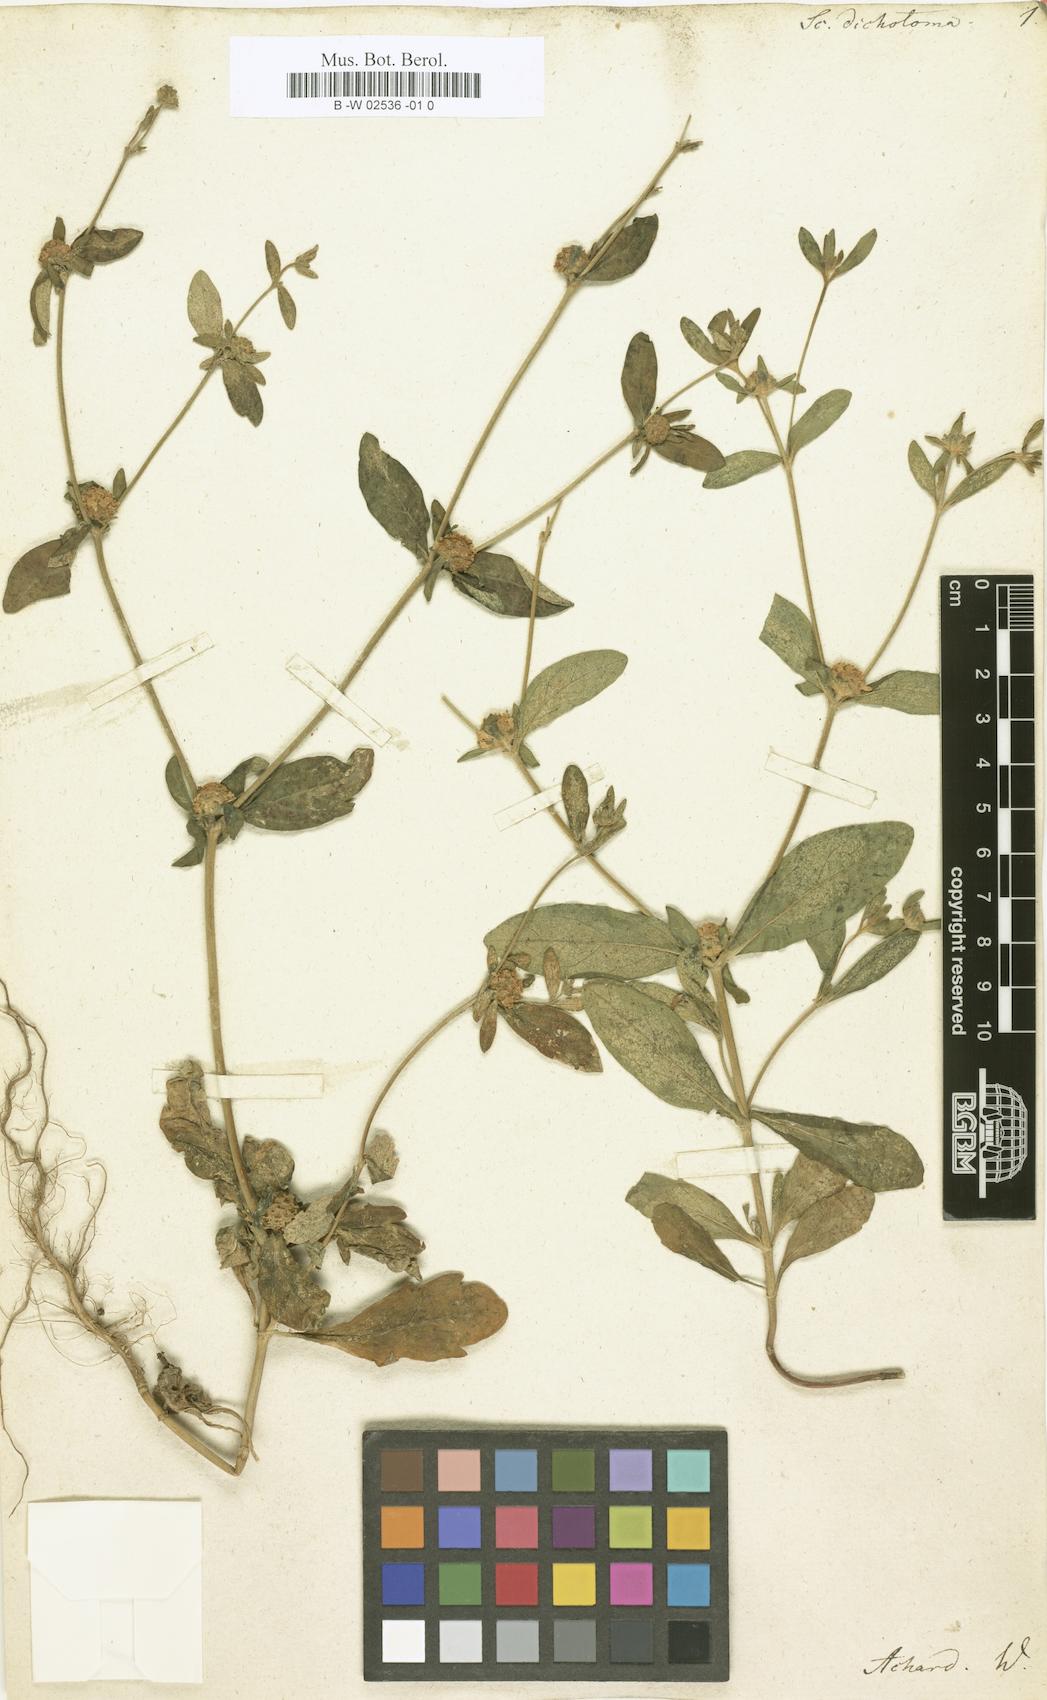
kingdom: Plantae
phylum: Tracheophyta
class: Magnoliopsida
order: Dipsacales
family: Caprifoliaceae
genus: Cephalaria
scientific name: Cephalaria syriaca
